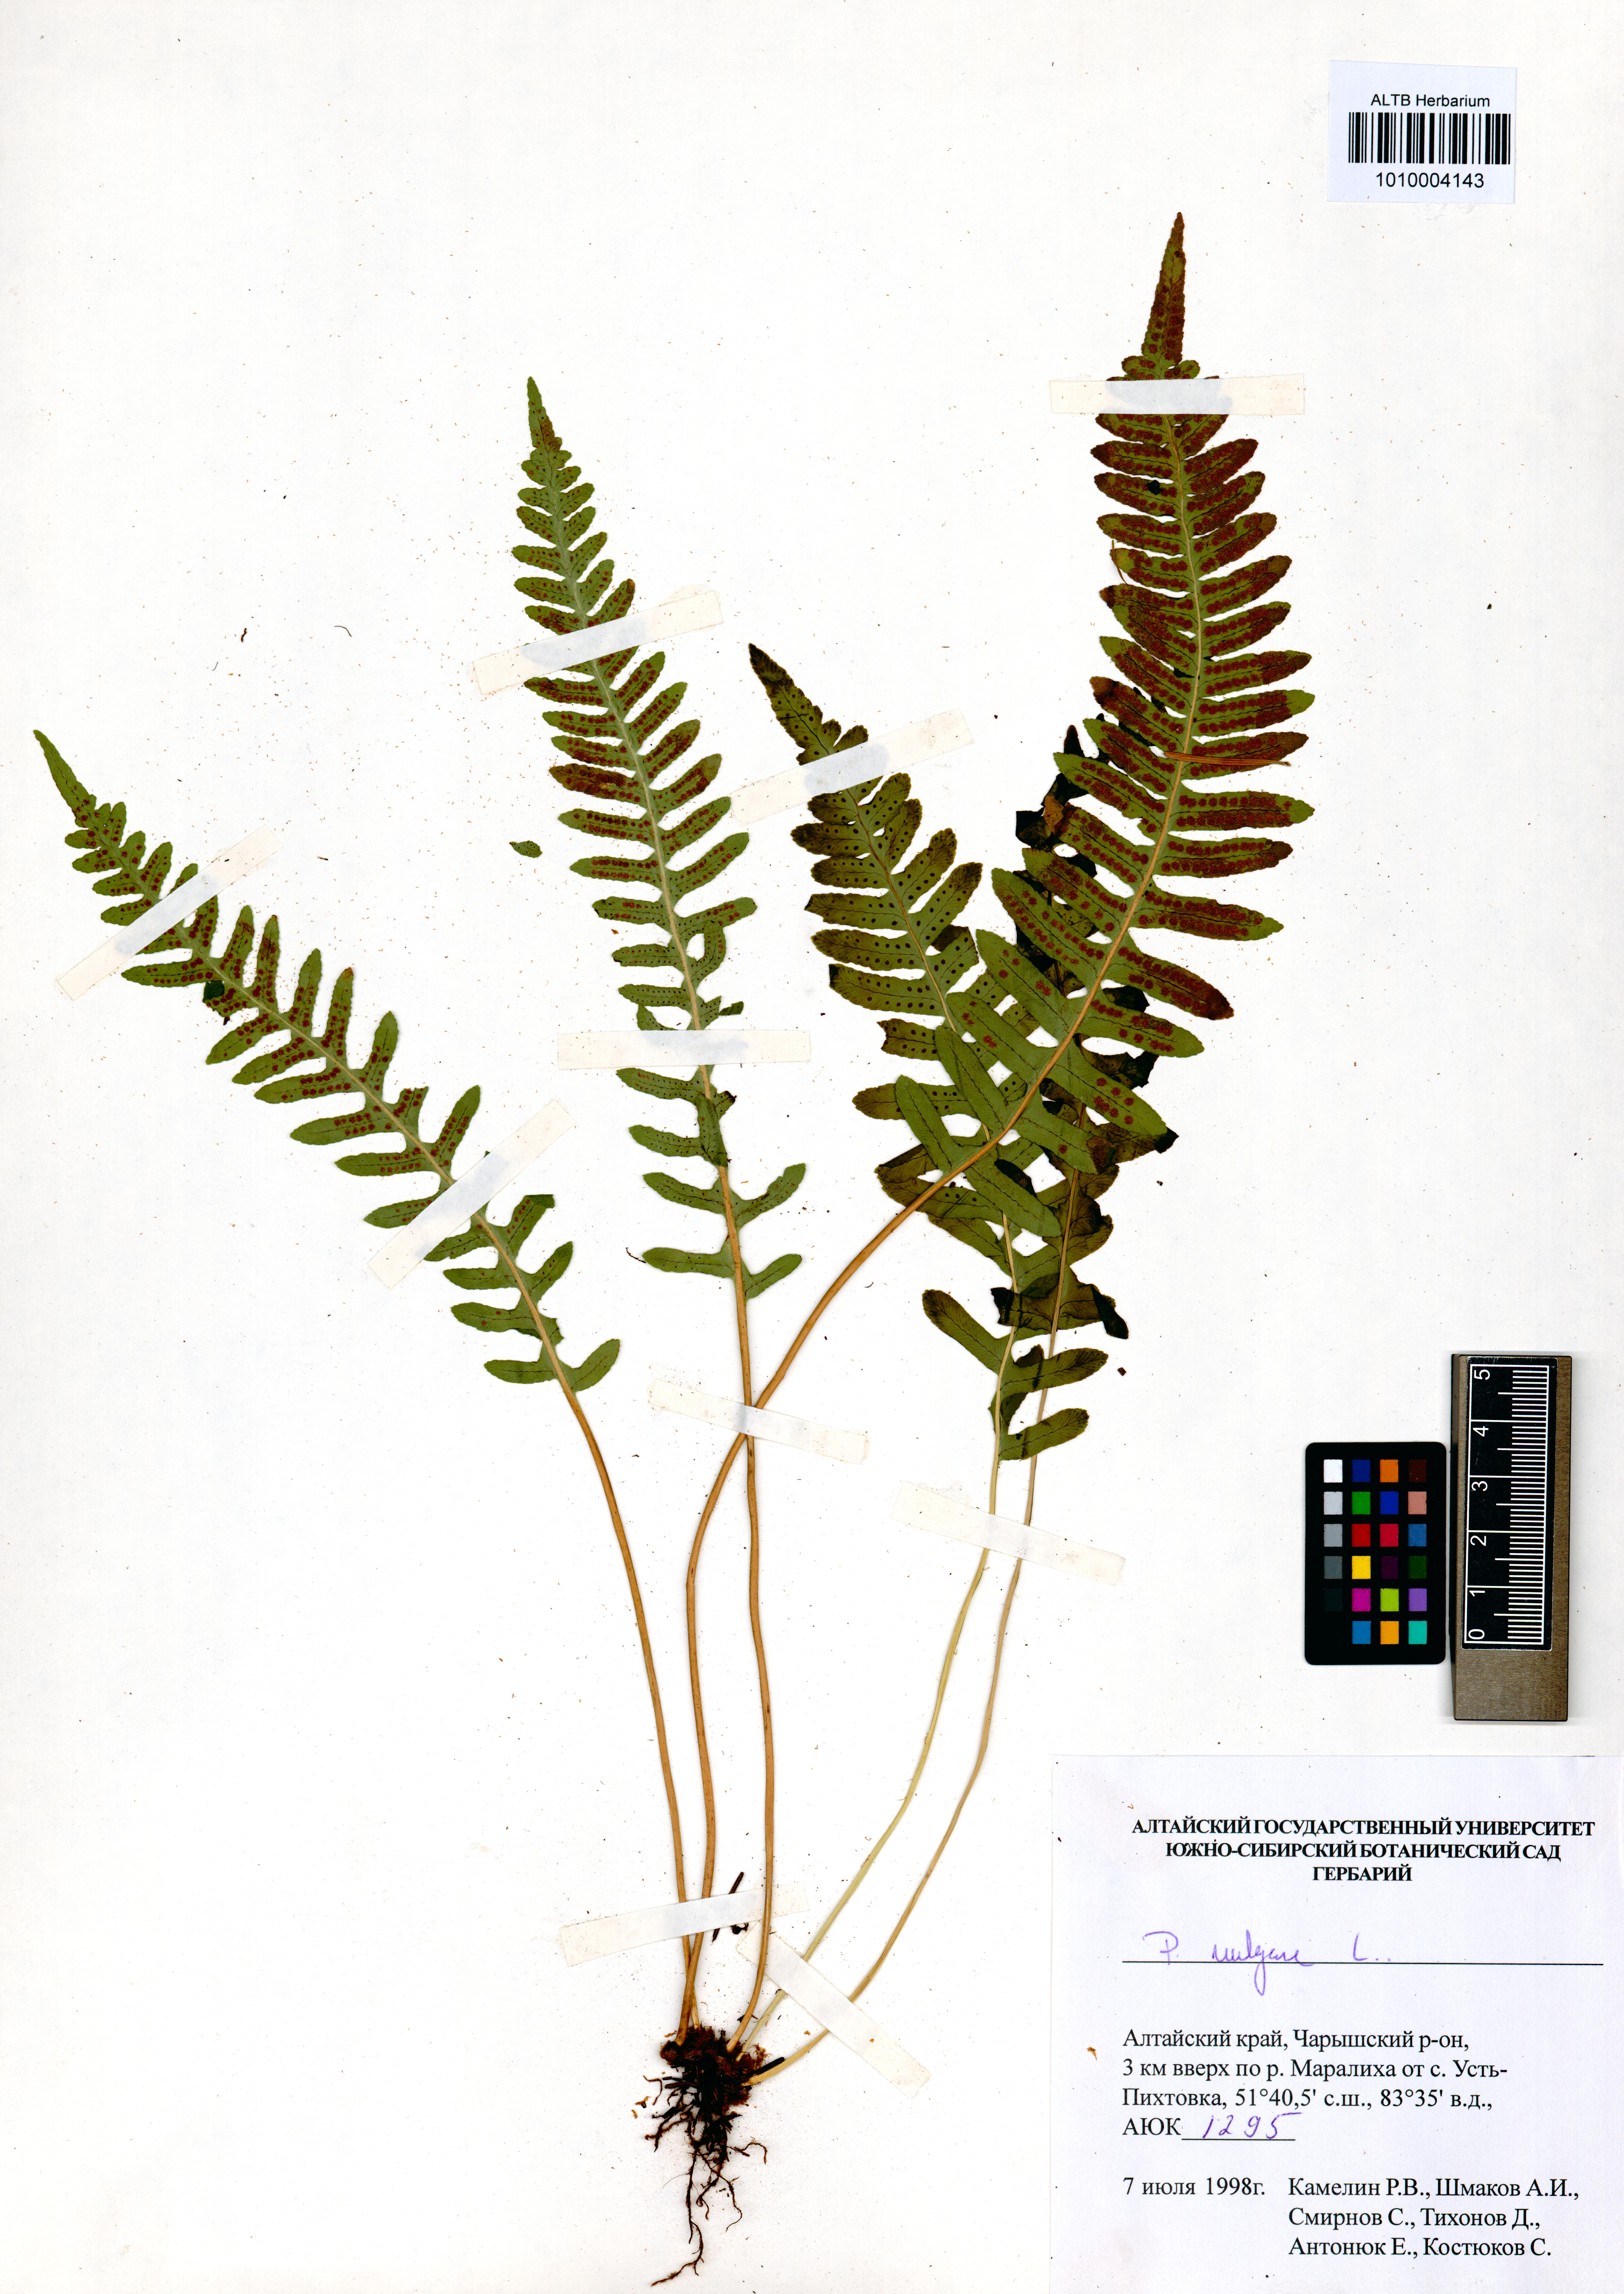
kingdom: Plantae
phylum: Tracheophyta
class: Polypodiopsida
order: Polypodiales
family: Polypodiaceae
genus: Polypodium
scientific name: Polypodium vulgare
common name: Common polypody
